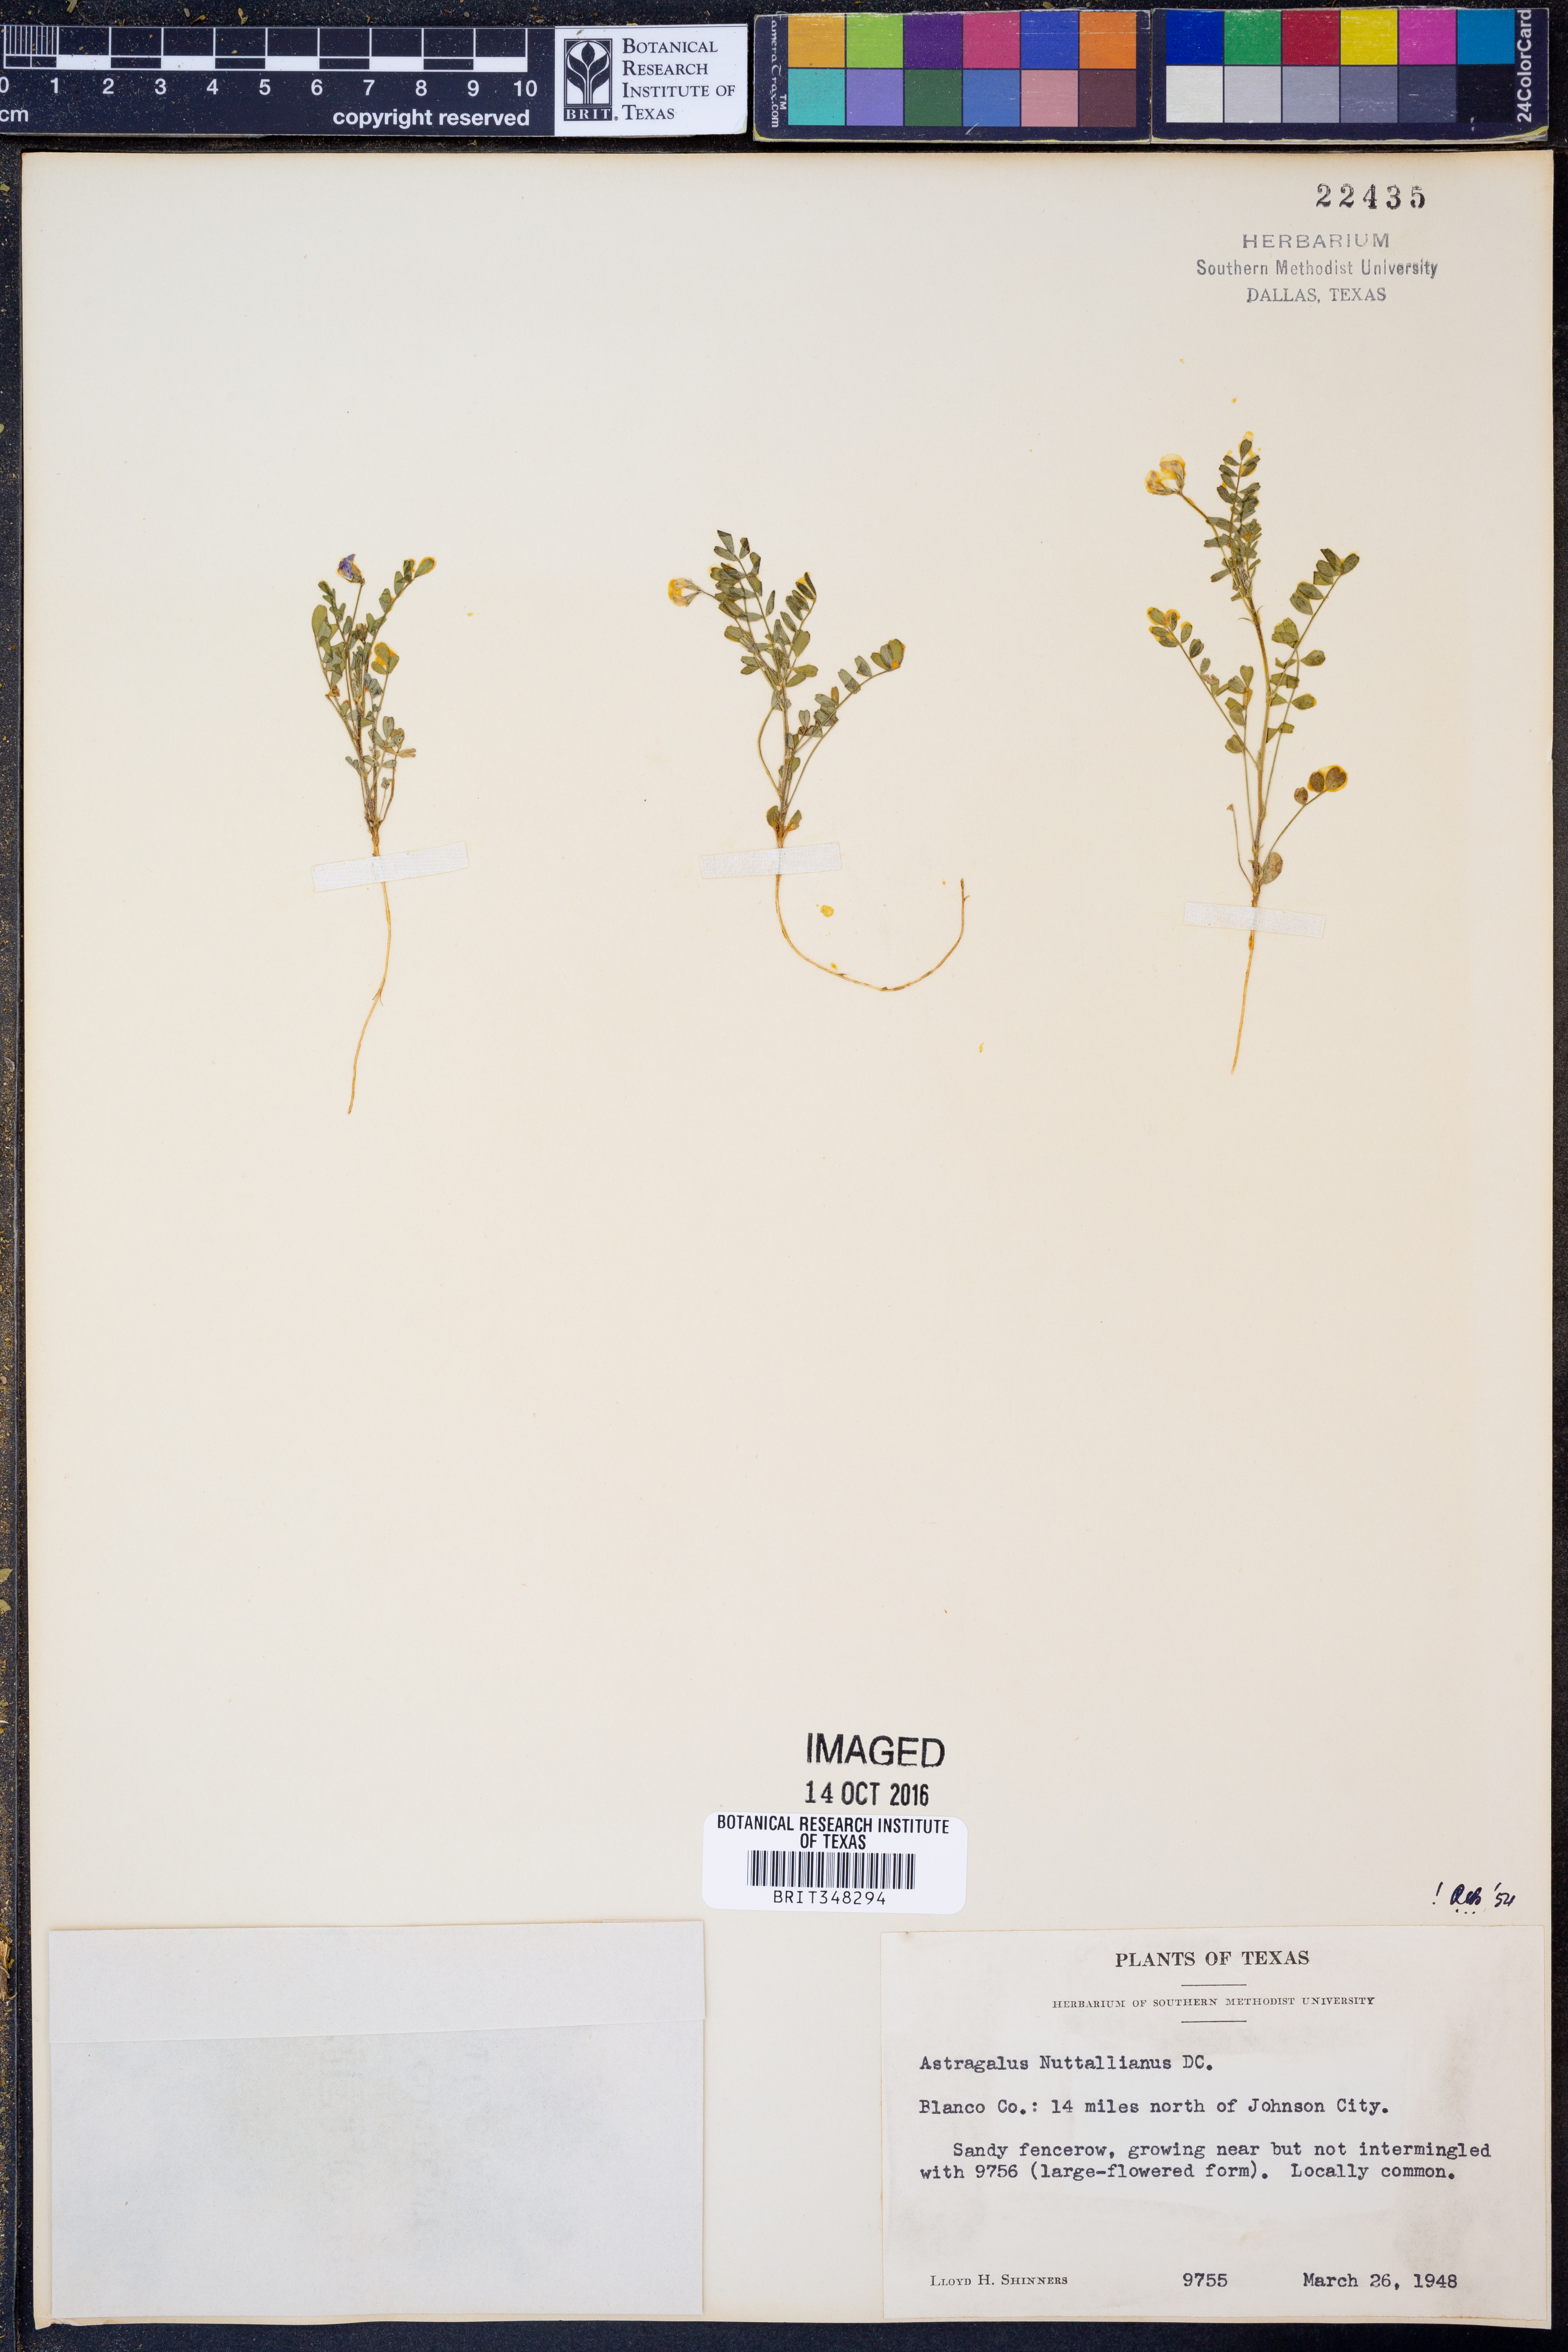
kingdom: Plantae
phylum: Tracheophyta
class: Magnoliopsida
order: Fabales
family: Fabaceae
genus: Astragalus
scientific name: Astragalus nuttallianus
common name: Smallflowered milkvetch
